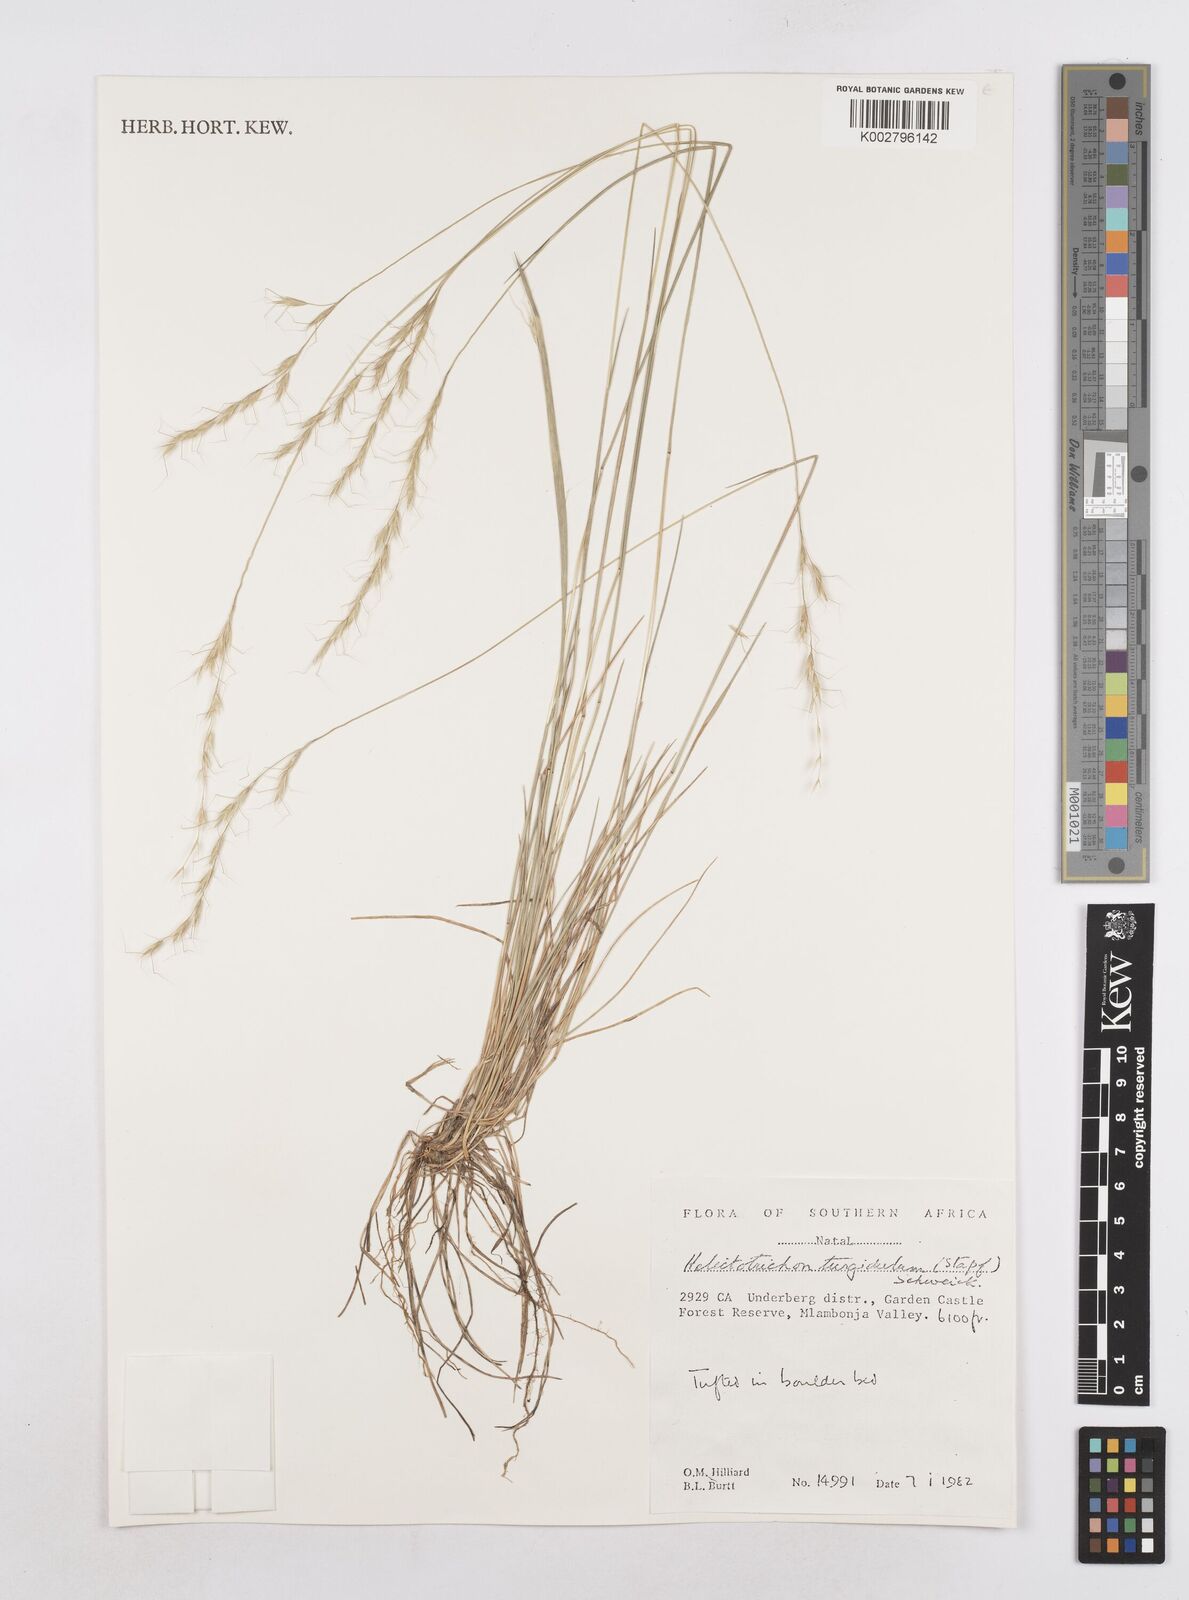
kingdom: Plantae
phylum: Tracheophyta
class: Liliopsida
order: Poales
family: Poaceae
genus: Trisetopsis
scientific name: Trisetopsis imberbis
